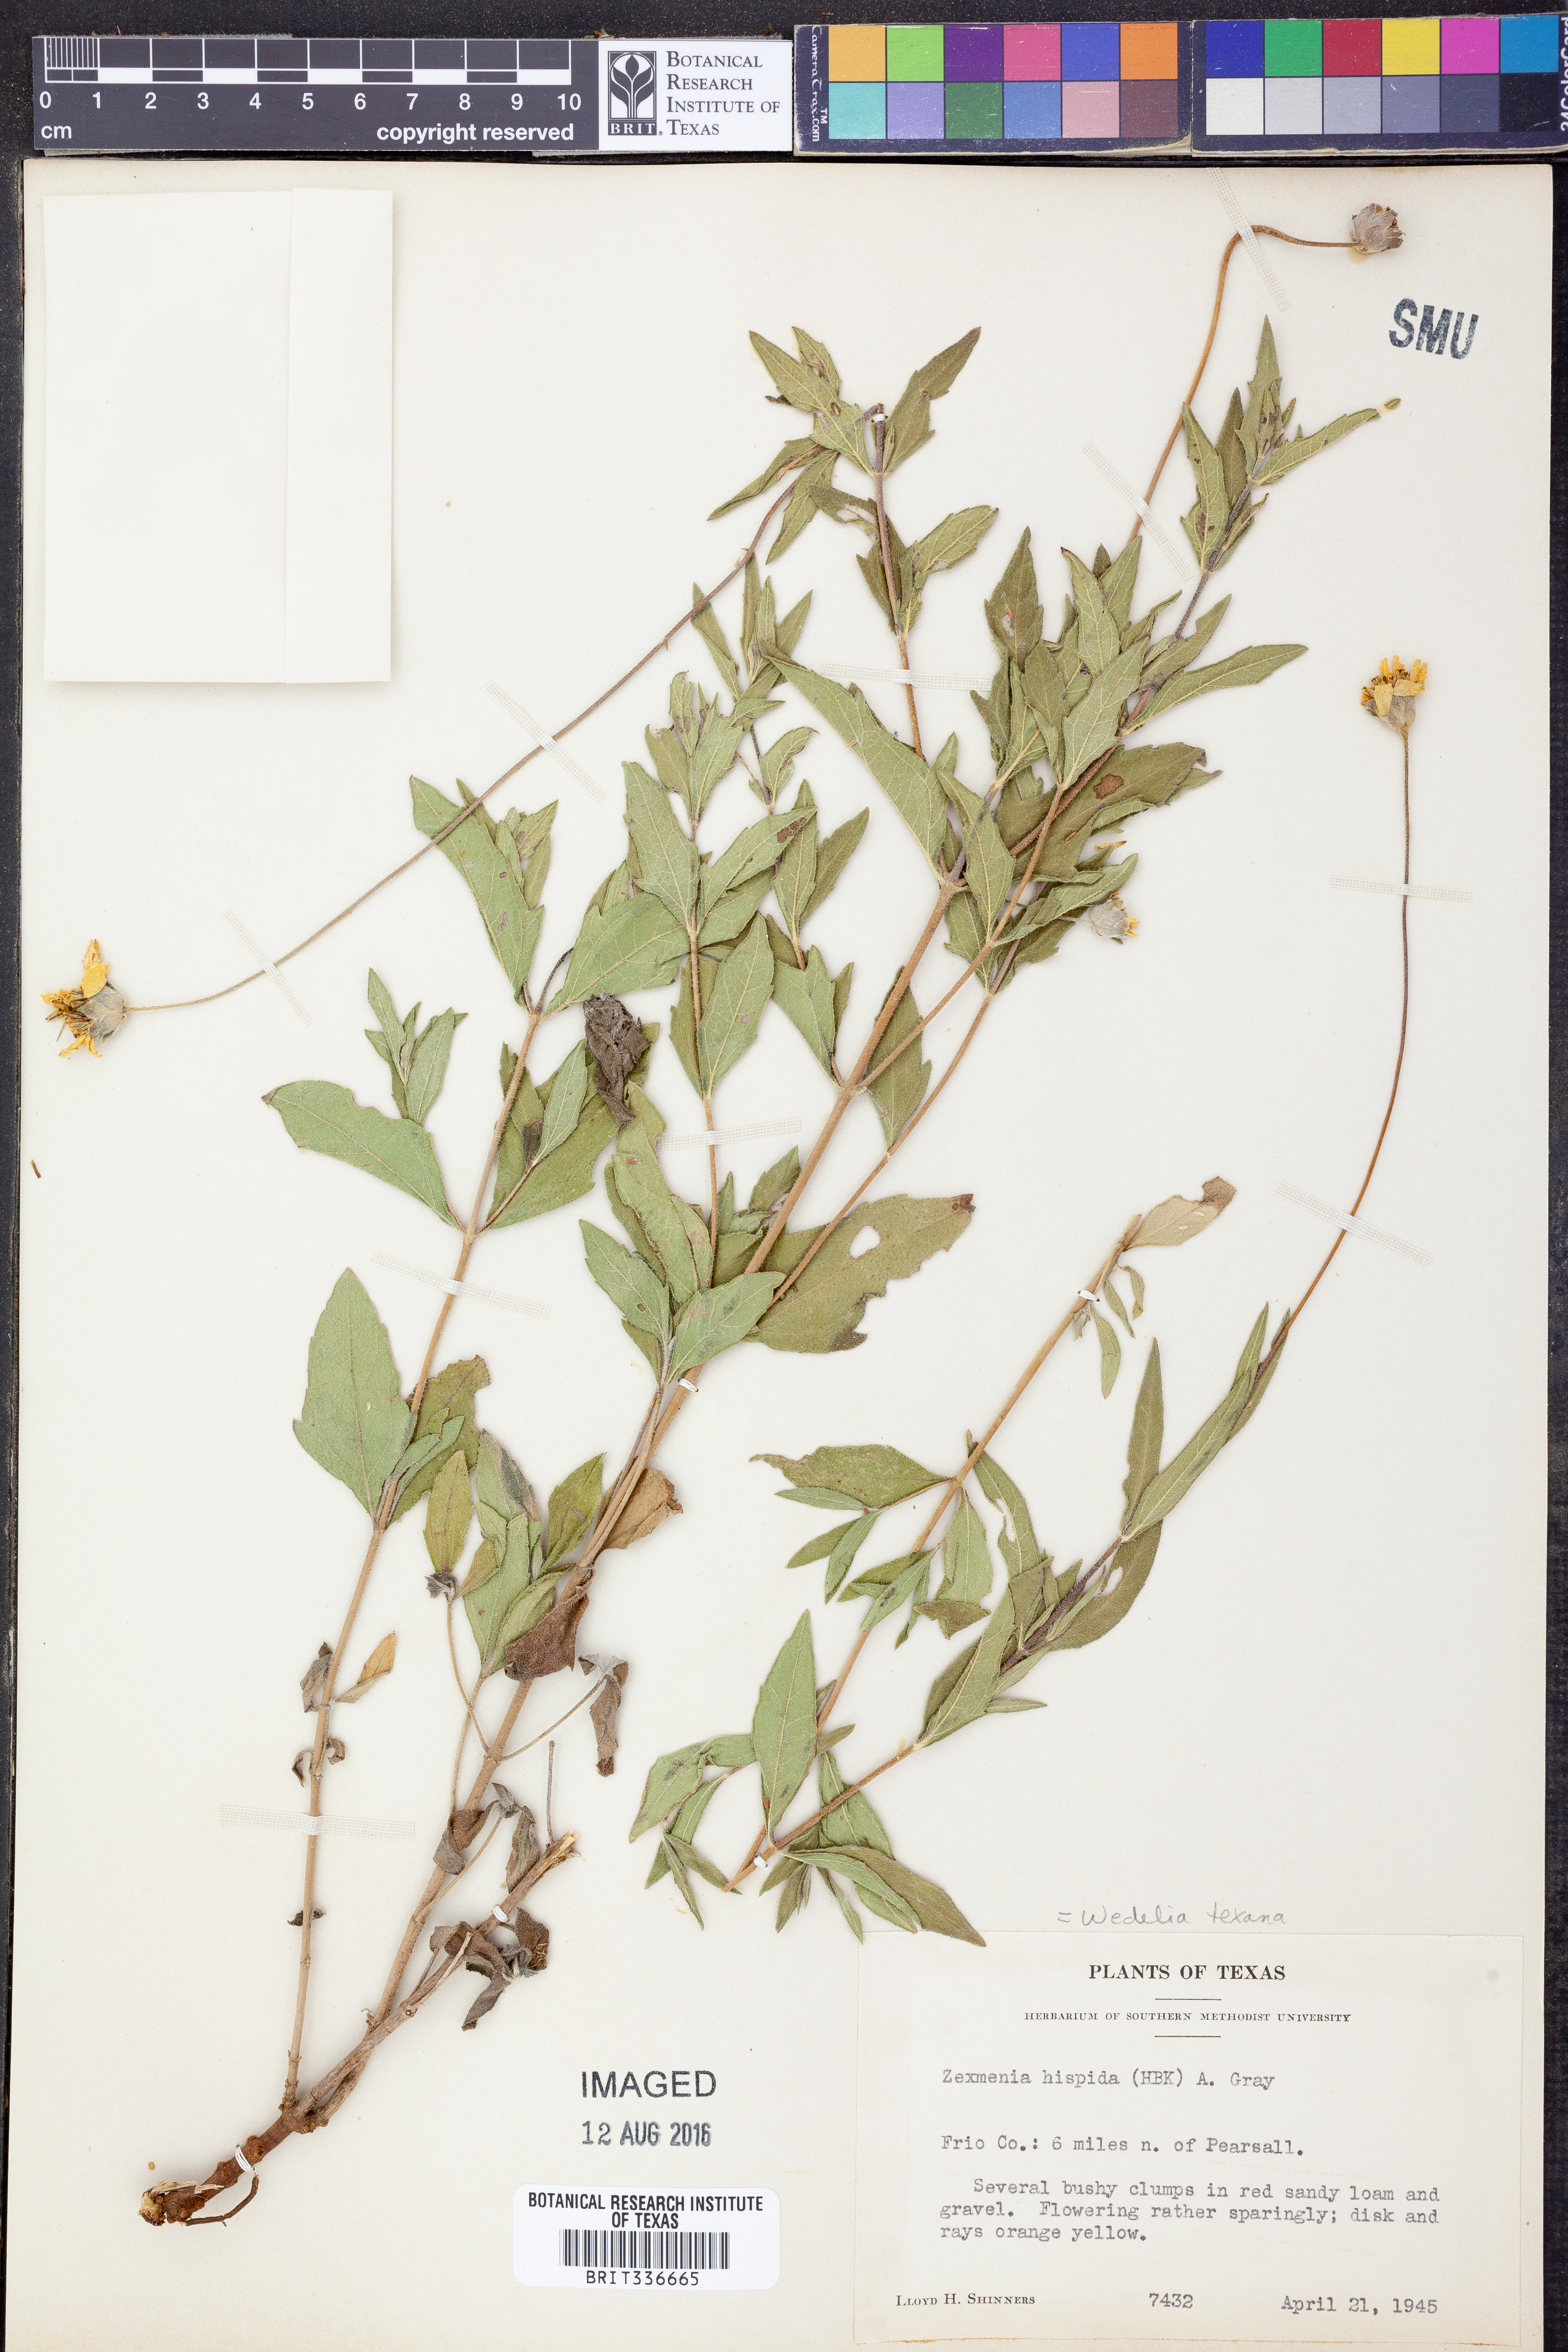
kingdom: Plantae
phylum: Tracheophyta
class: Magnoliopsida
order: Asterales
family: Asteraceae
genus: Wedelia
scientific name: Wedelia acapulcensis
